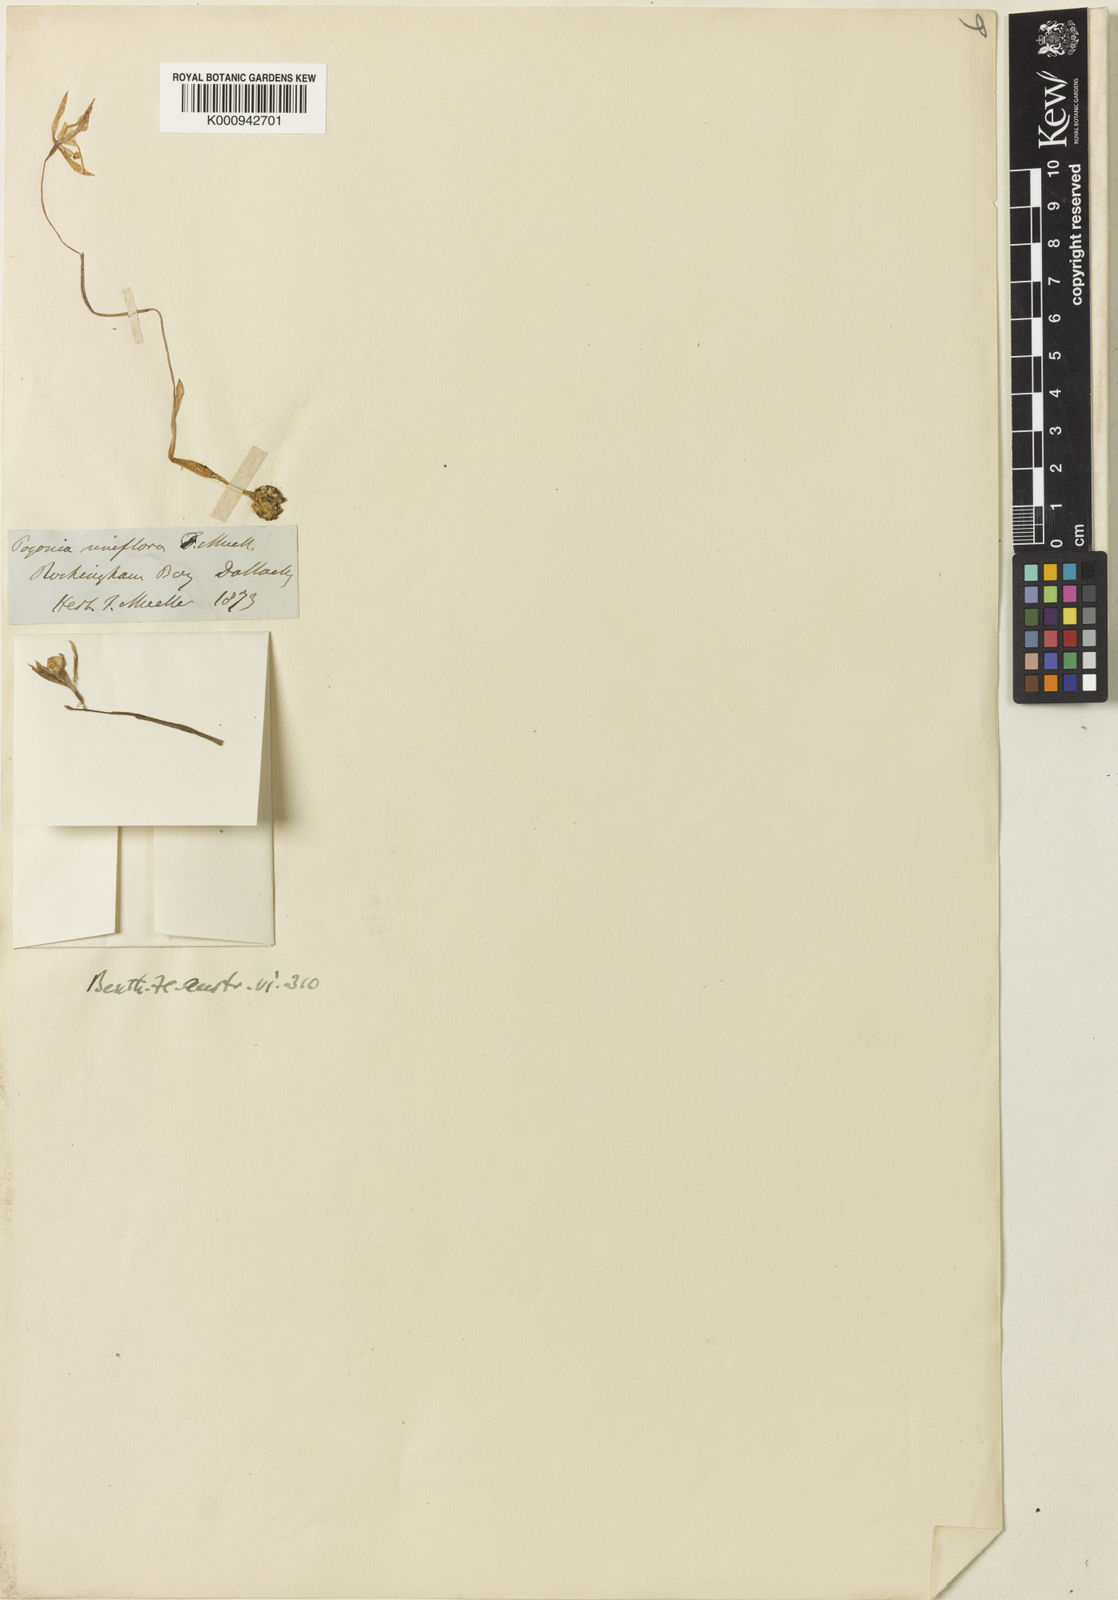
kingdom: Plantae
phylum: Tracheophyta
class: Liliopsida
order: Asparagales
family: Orchidaceae
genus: Nervilia
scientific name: Nervilia uniflora
